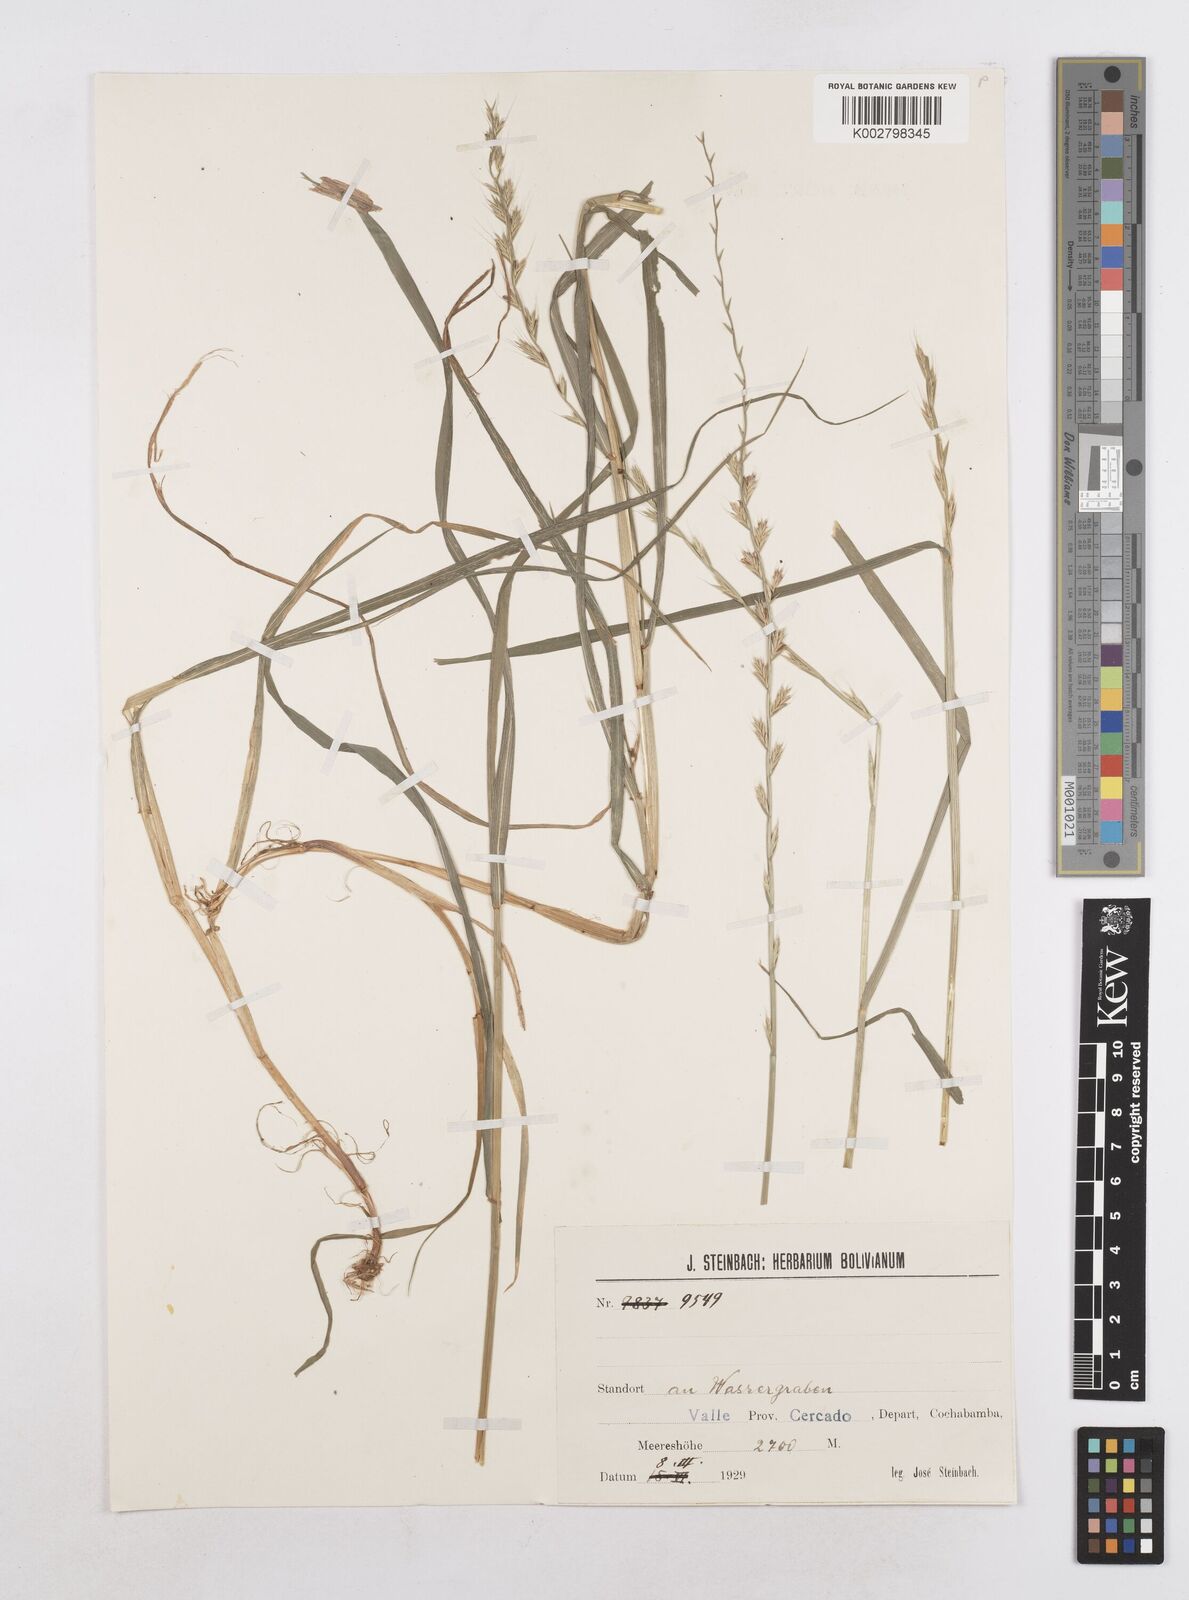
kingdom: Plantae
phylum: Tracheophyta
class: Liliopsida
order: Poales
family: Poaceae
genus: Lolium
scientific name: Lolium multiflorum
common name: Annual ryegrass
